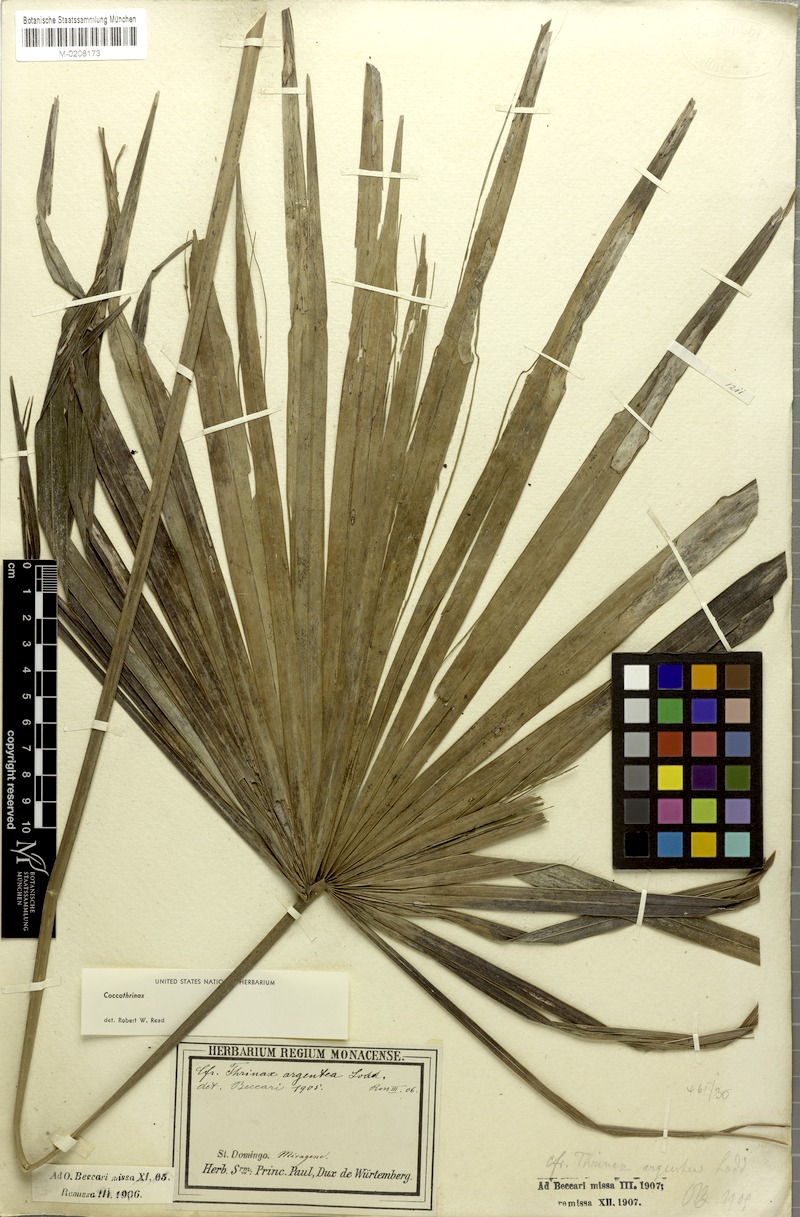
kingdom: Plantae
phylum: Tracheophyta
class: Liliopsida
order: Arecales
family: Arecaceae
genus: Coccothrinax
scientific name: Coccothrinax argentea
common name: Broom palm
